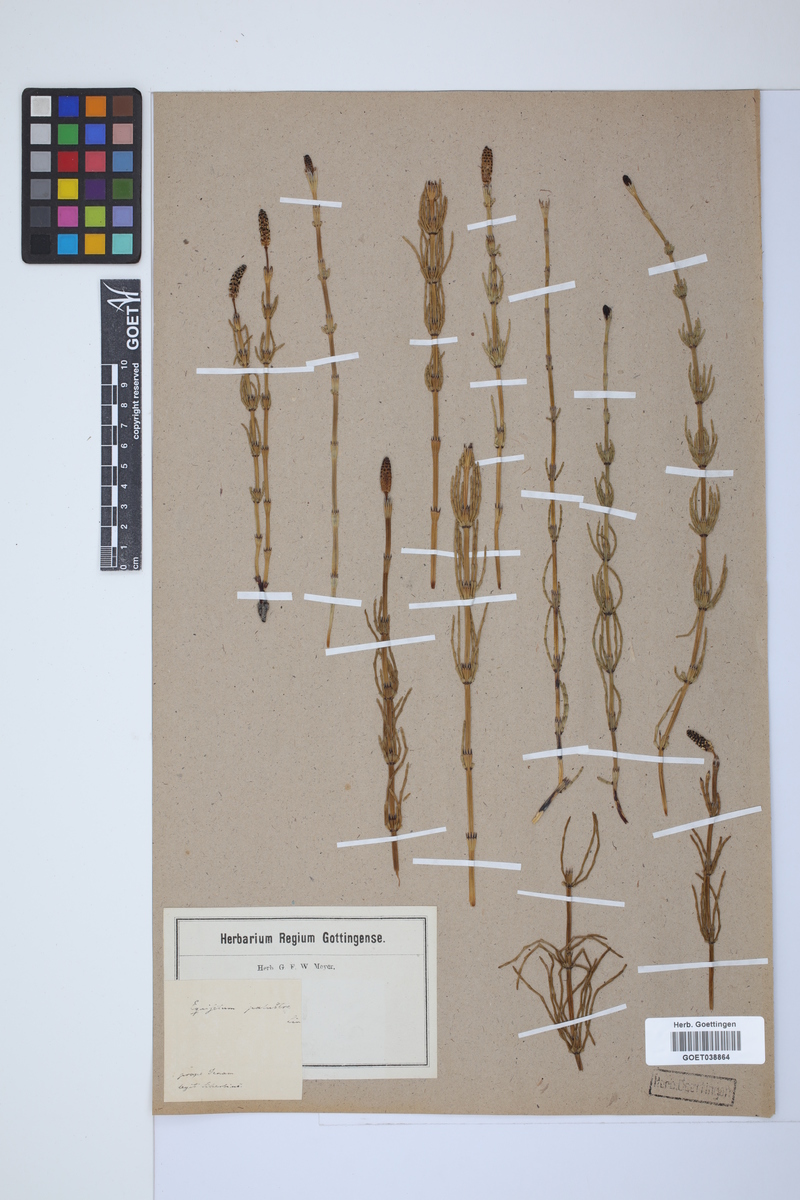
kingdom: Plantae
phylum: Tracheophyta
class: Polypodiopsida
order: Equisetales
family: Equisetaceae
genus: Equisetum
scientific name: Equisetum palustre
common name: Marsh horsetail
